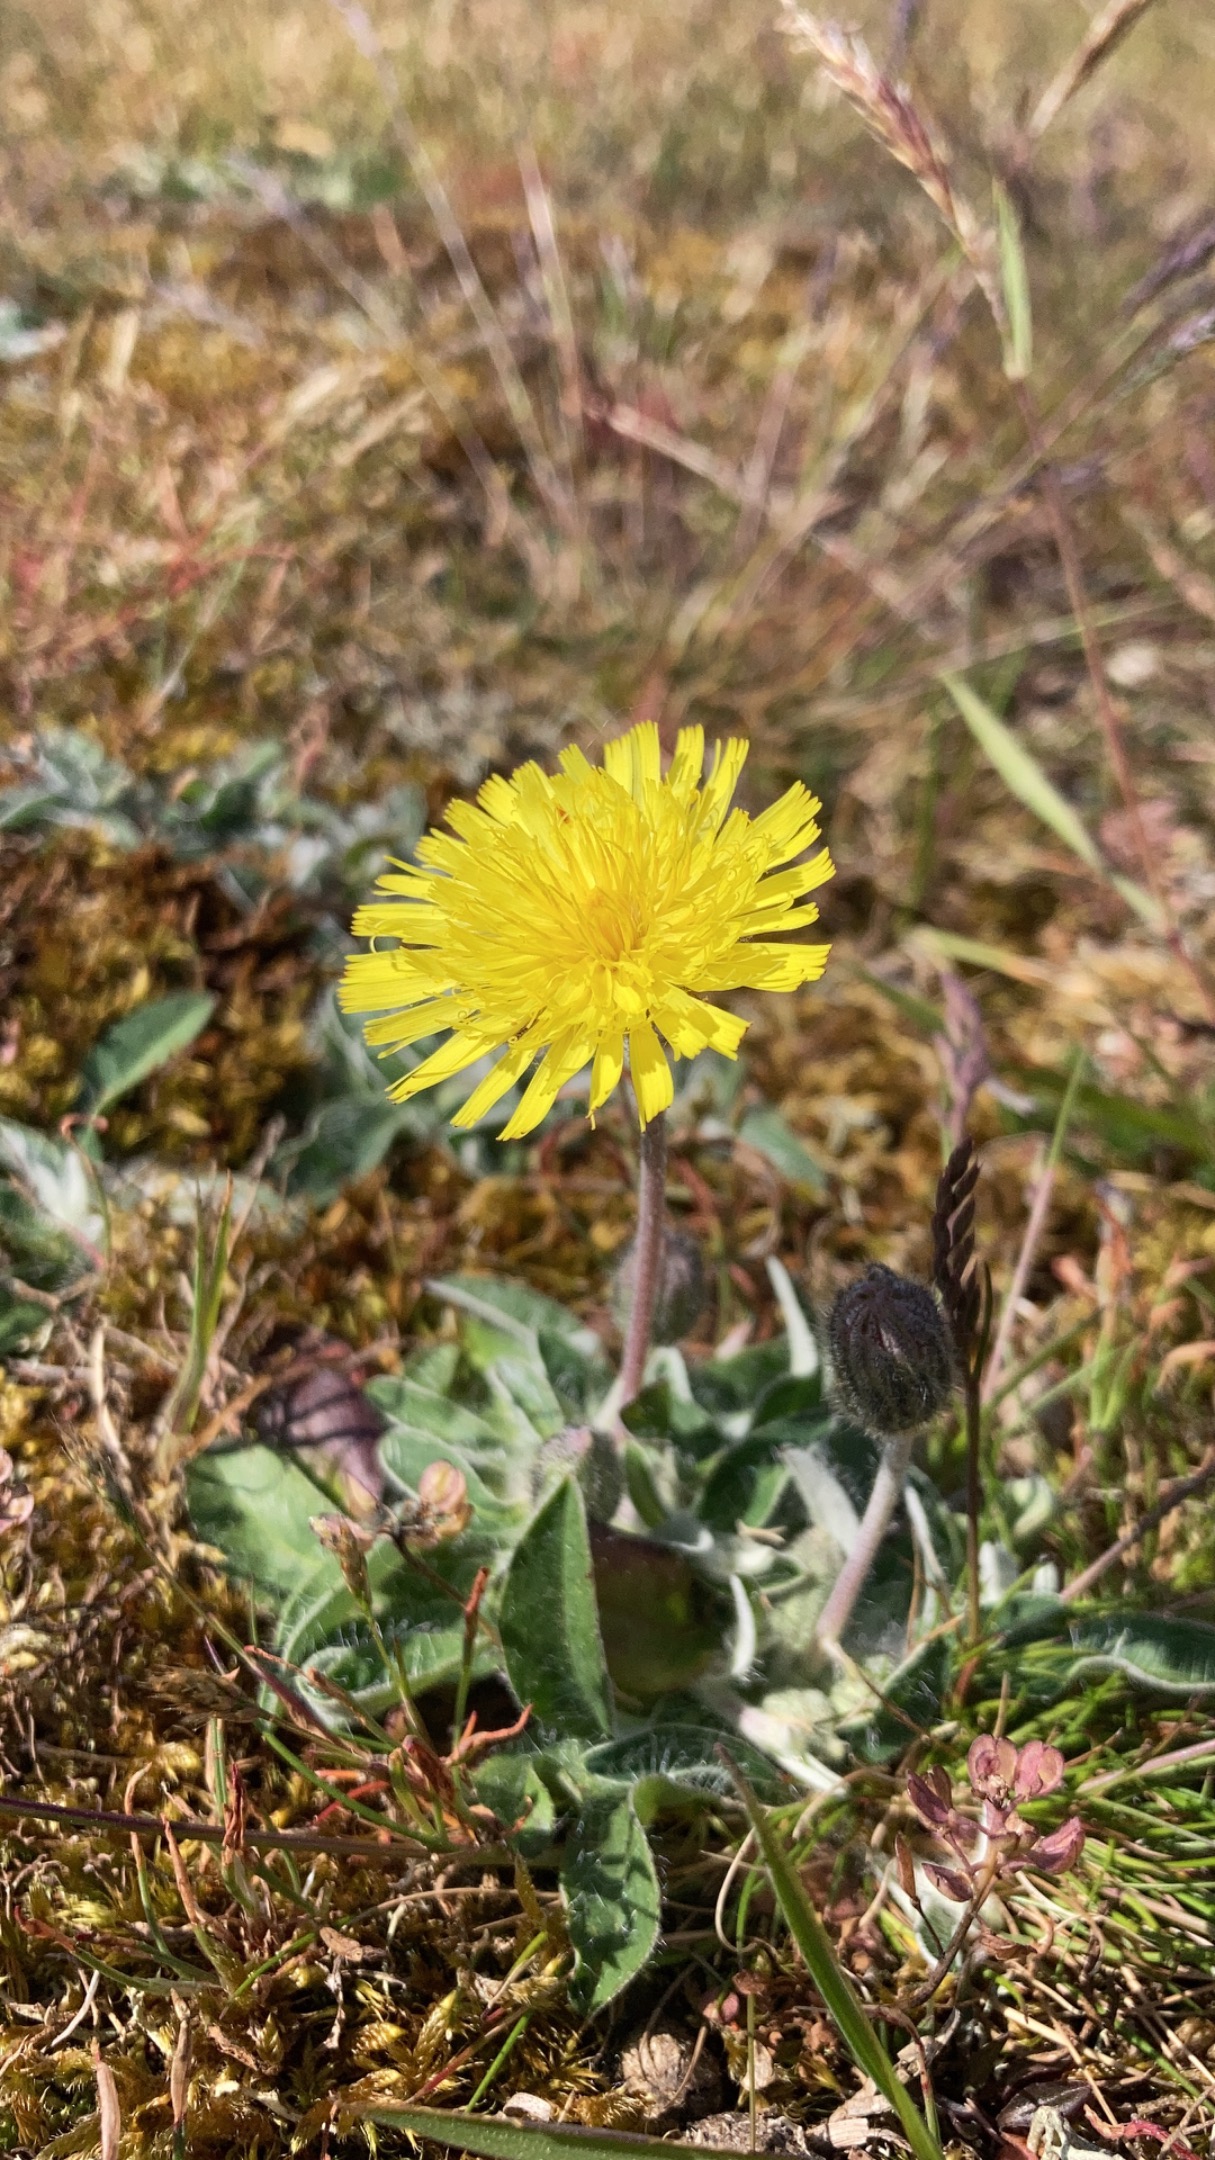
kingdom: Plantae
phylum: Tracheophyta
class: Magnoliopsida
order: Asterales
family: Asteraceae
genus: Pilosella
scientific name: Pilosella officinarum
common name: Håret høgeurt
